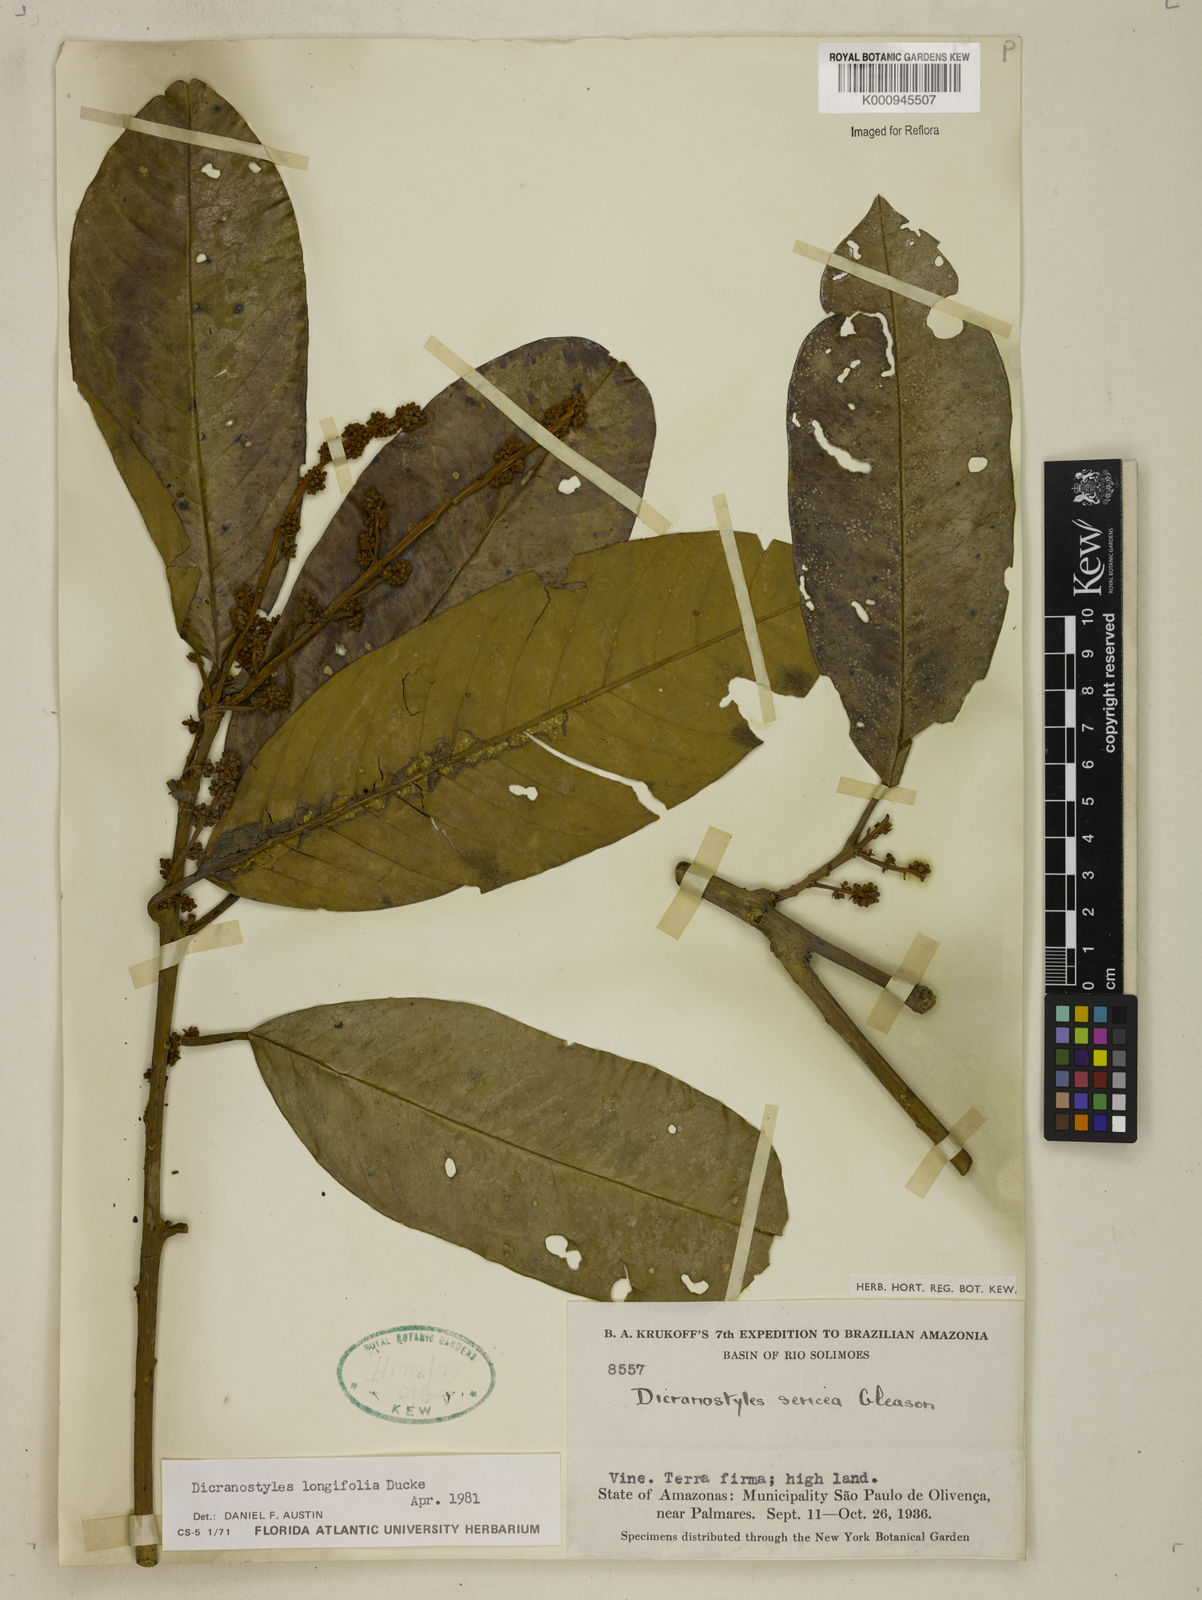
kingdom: Plantae
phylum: Tracheophyta
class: Magnoliopsida
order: Solanales
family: Convolvulaceae
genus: Dicranostyles
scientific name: Dicranostyles longifolia
